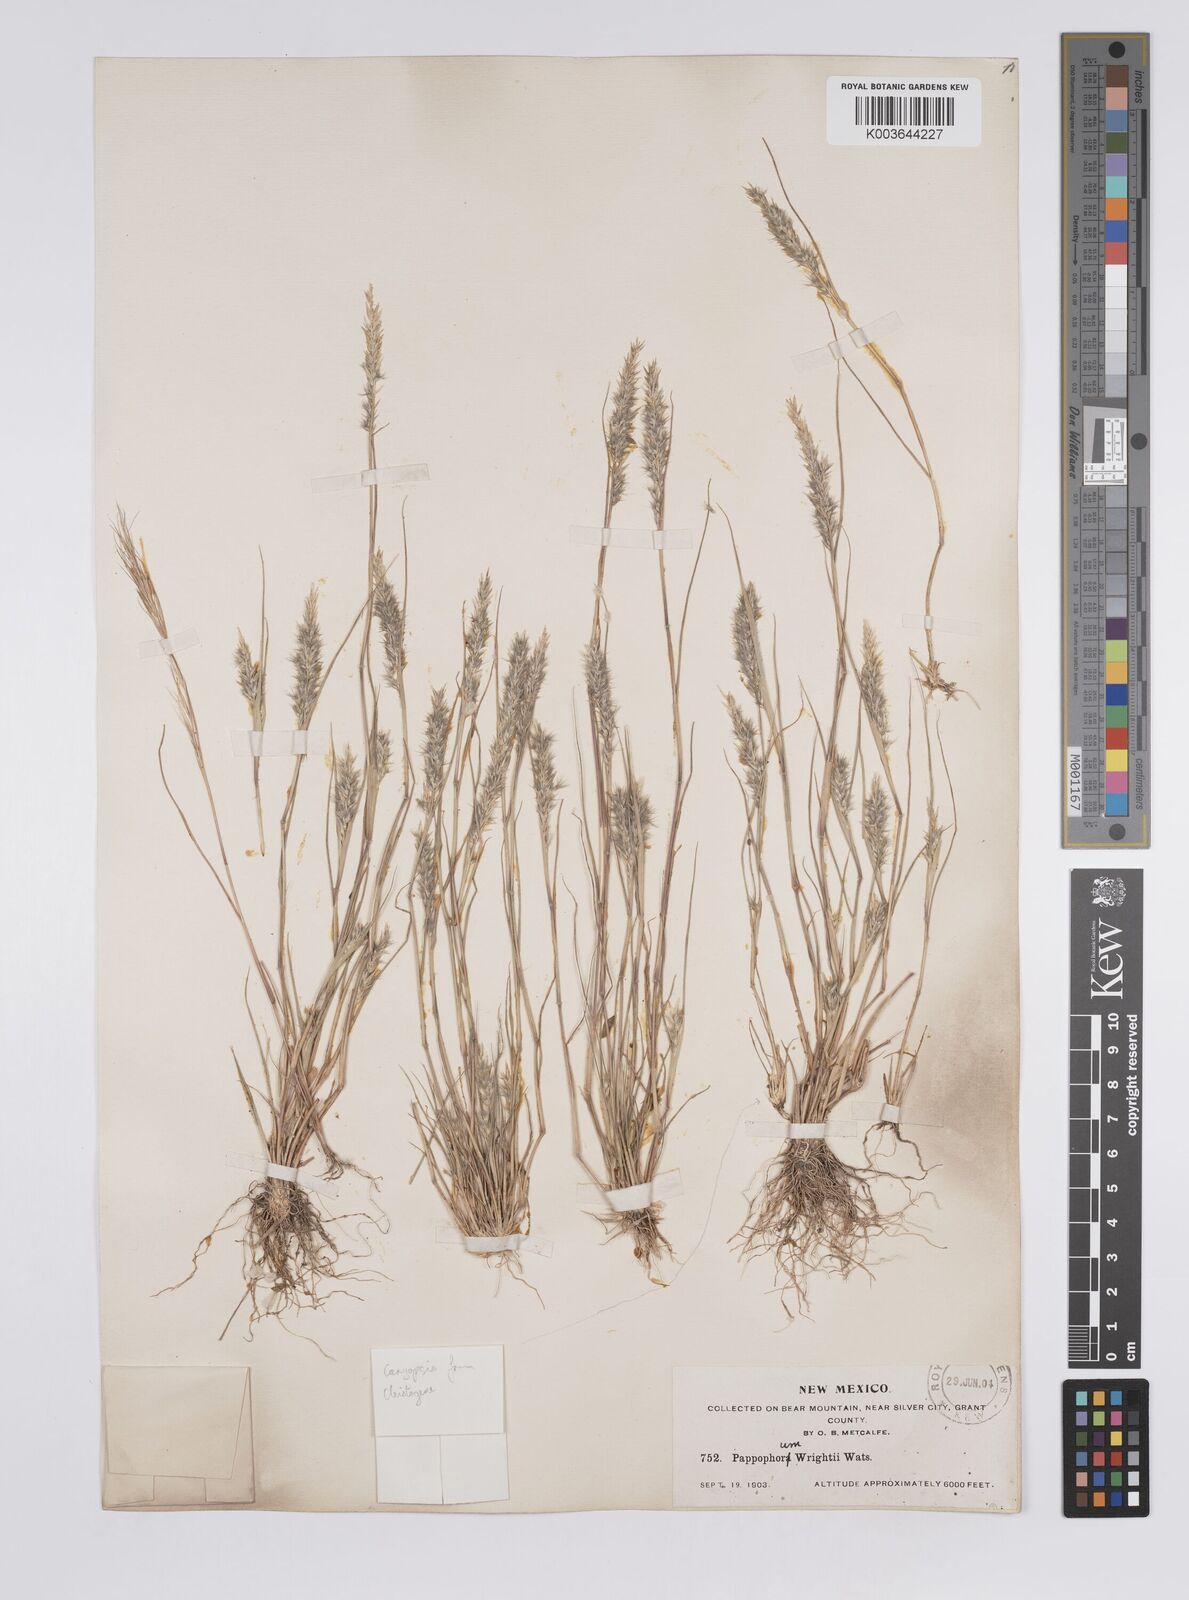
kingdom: Plantae
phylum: Tracheophyta
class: Liliopsida
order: Poales
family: Poaceae
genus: Enneapogon
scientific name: Enneapogon desvauxii
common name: Feather pappus grass
